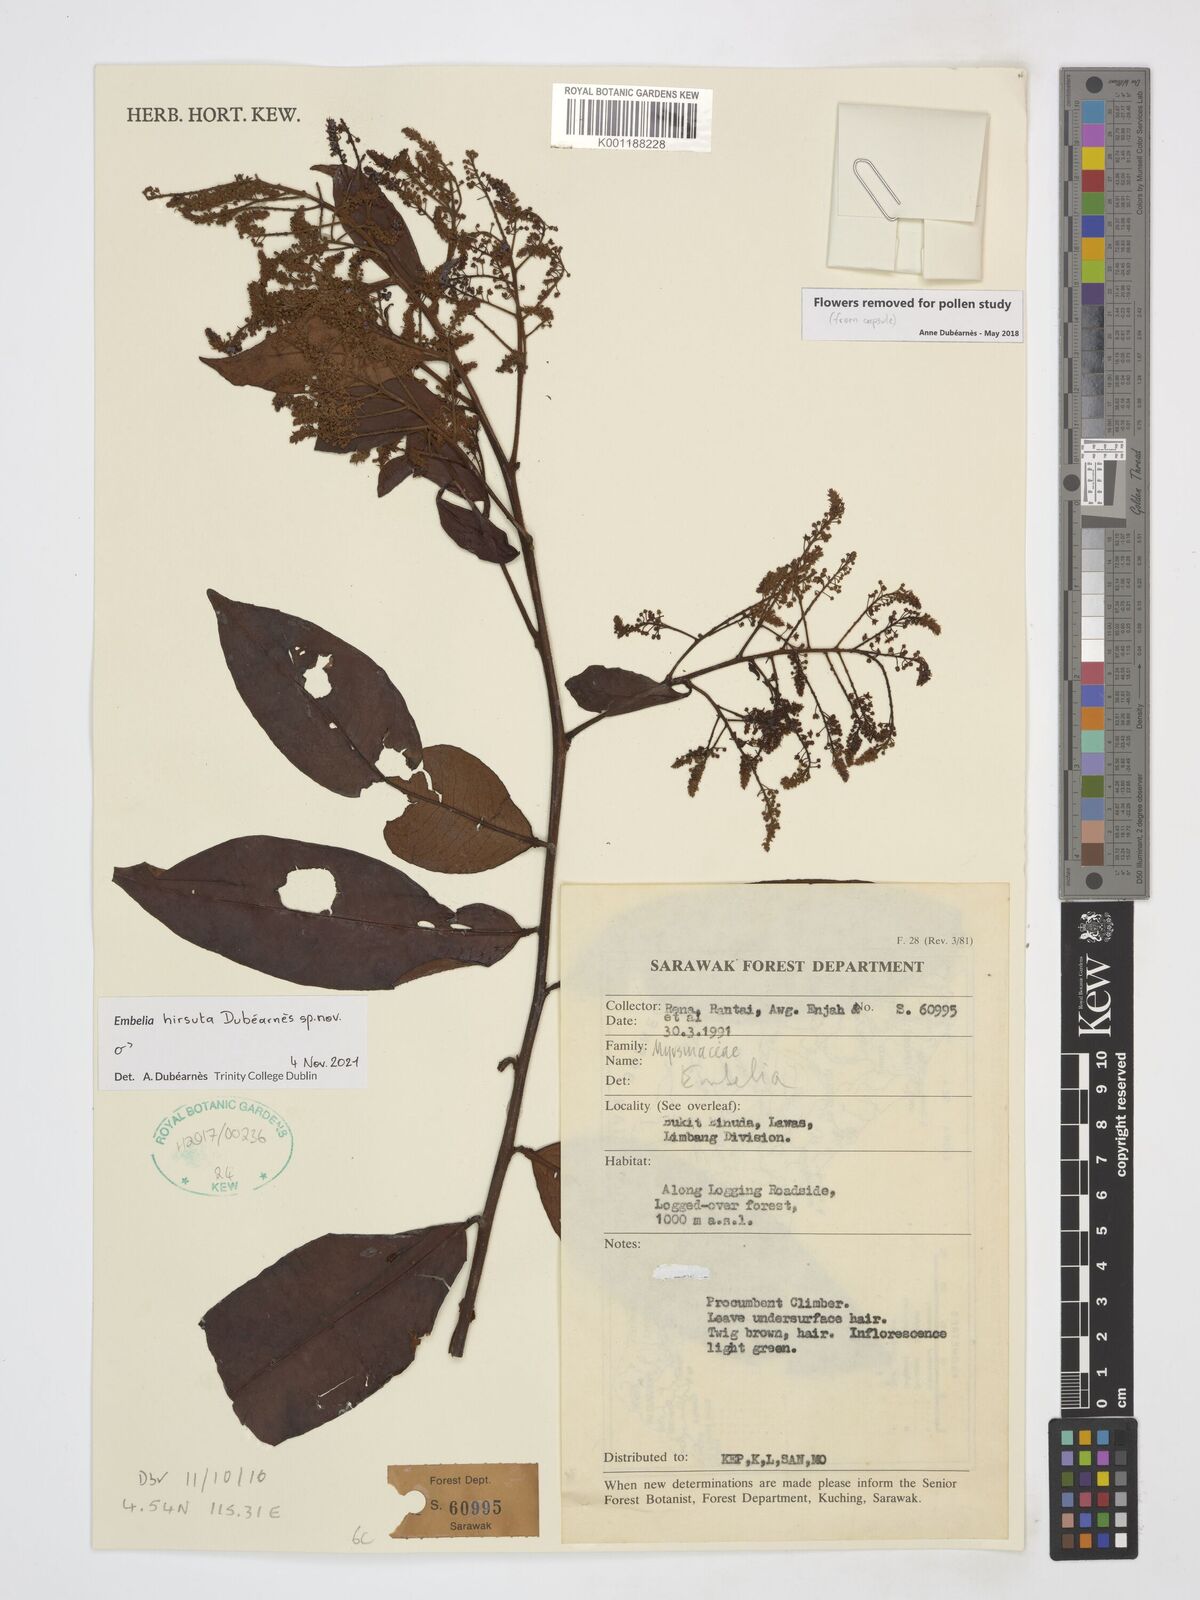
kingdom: Plantae
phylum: Tracheophyta
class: Magnoliopsida
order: Ericales
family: Primulaceae
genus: Embelia
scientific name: Embelia
